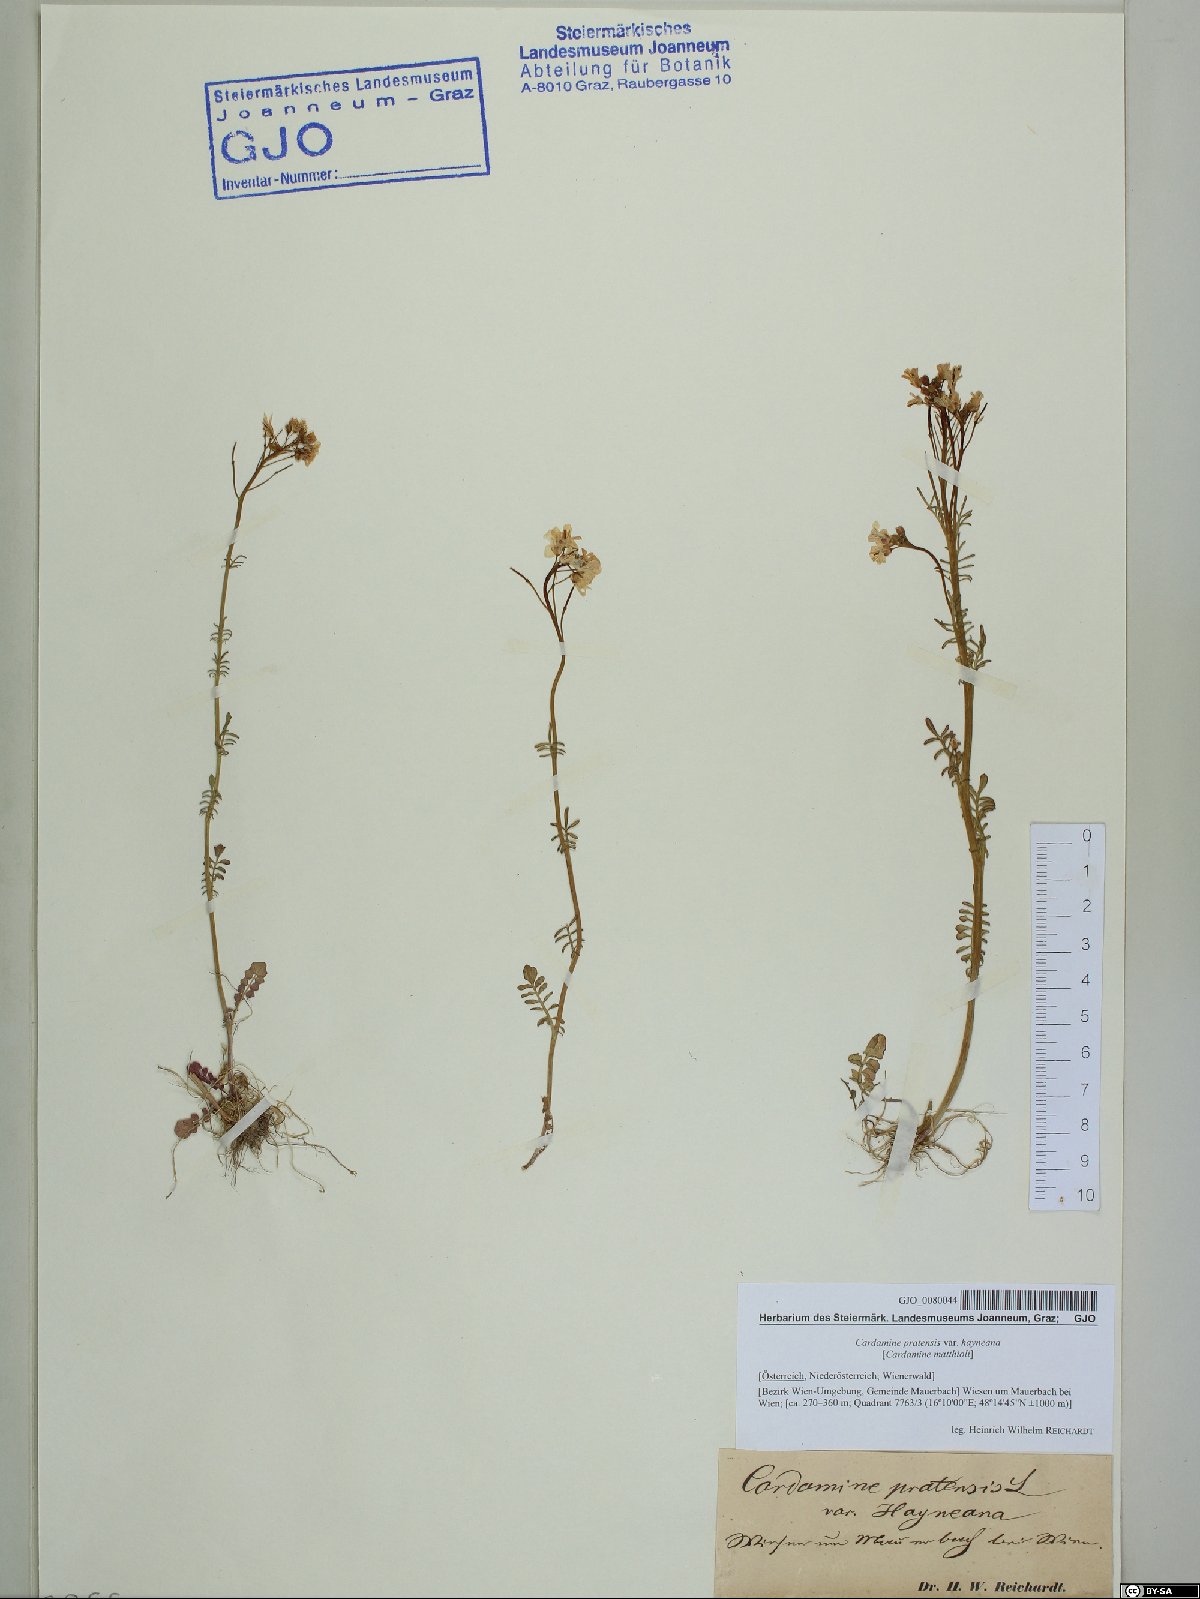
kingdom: Plantae
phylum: Tracheophyta
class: Magnoliopsida
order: Brassicales
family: Brassicaceae
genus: Cardamine
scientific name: Cardamine matthioli
